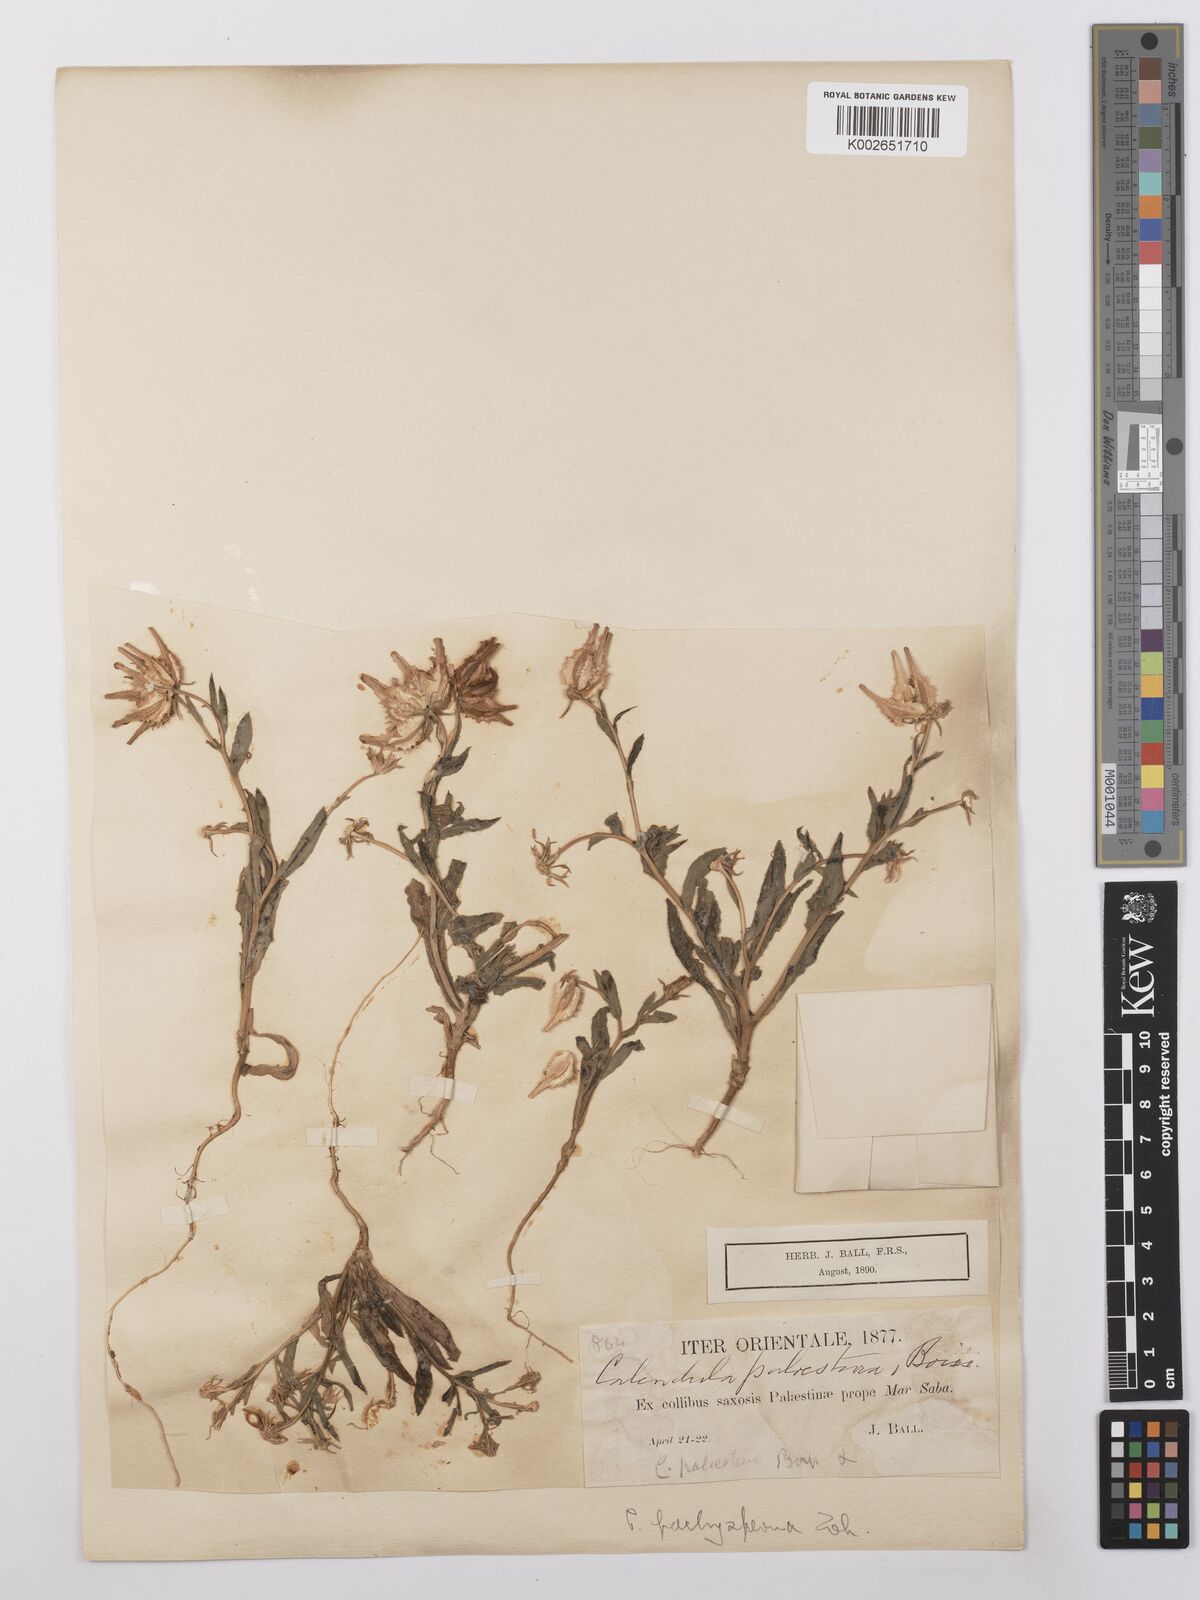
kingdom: Plantae
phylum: Tracheophyta
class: Magnoliopsida
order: Asterales
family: Asteraceae
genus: Calendula
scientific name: Calendula pachysperma
